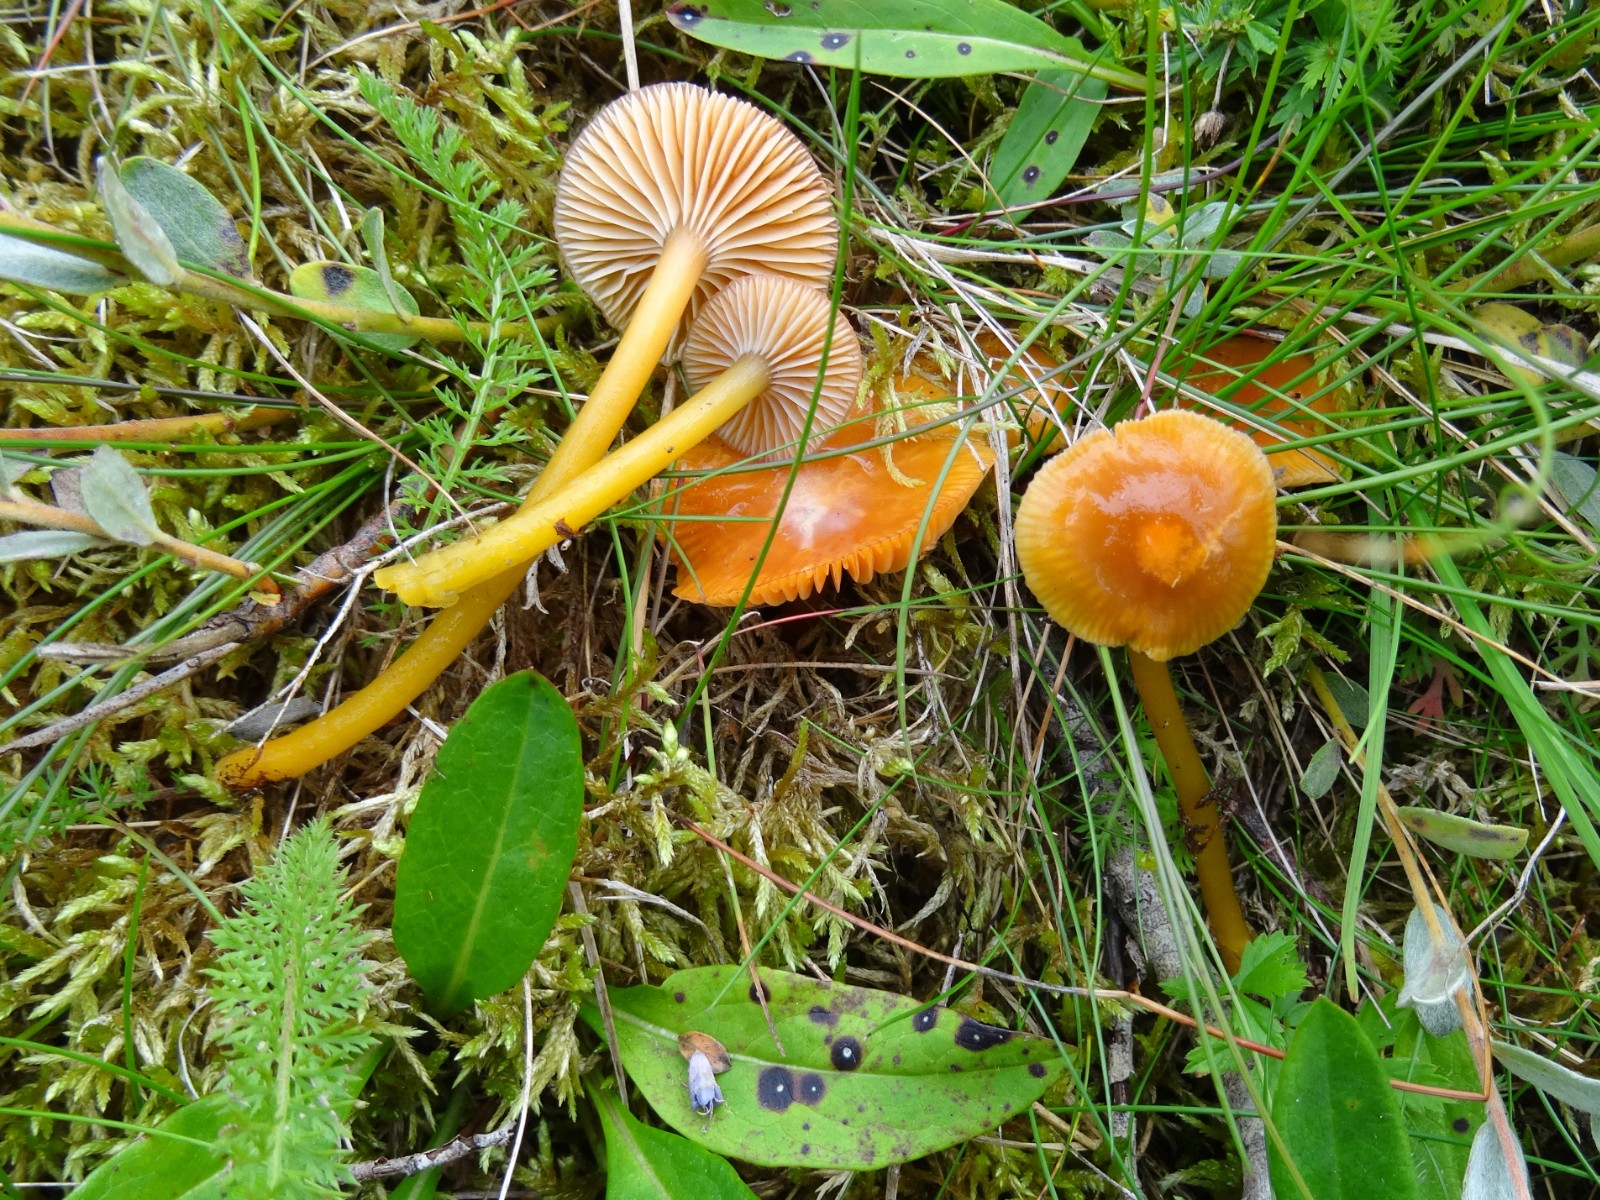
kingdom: Fungi
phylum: Basidiomycota
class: Agaricomycetes
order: Agaricales
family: Hygrophoraceae
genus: Gliophorus
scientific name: Gliophorus laetus
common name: brusk-vokshat
